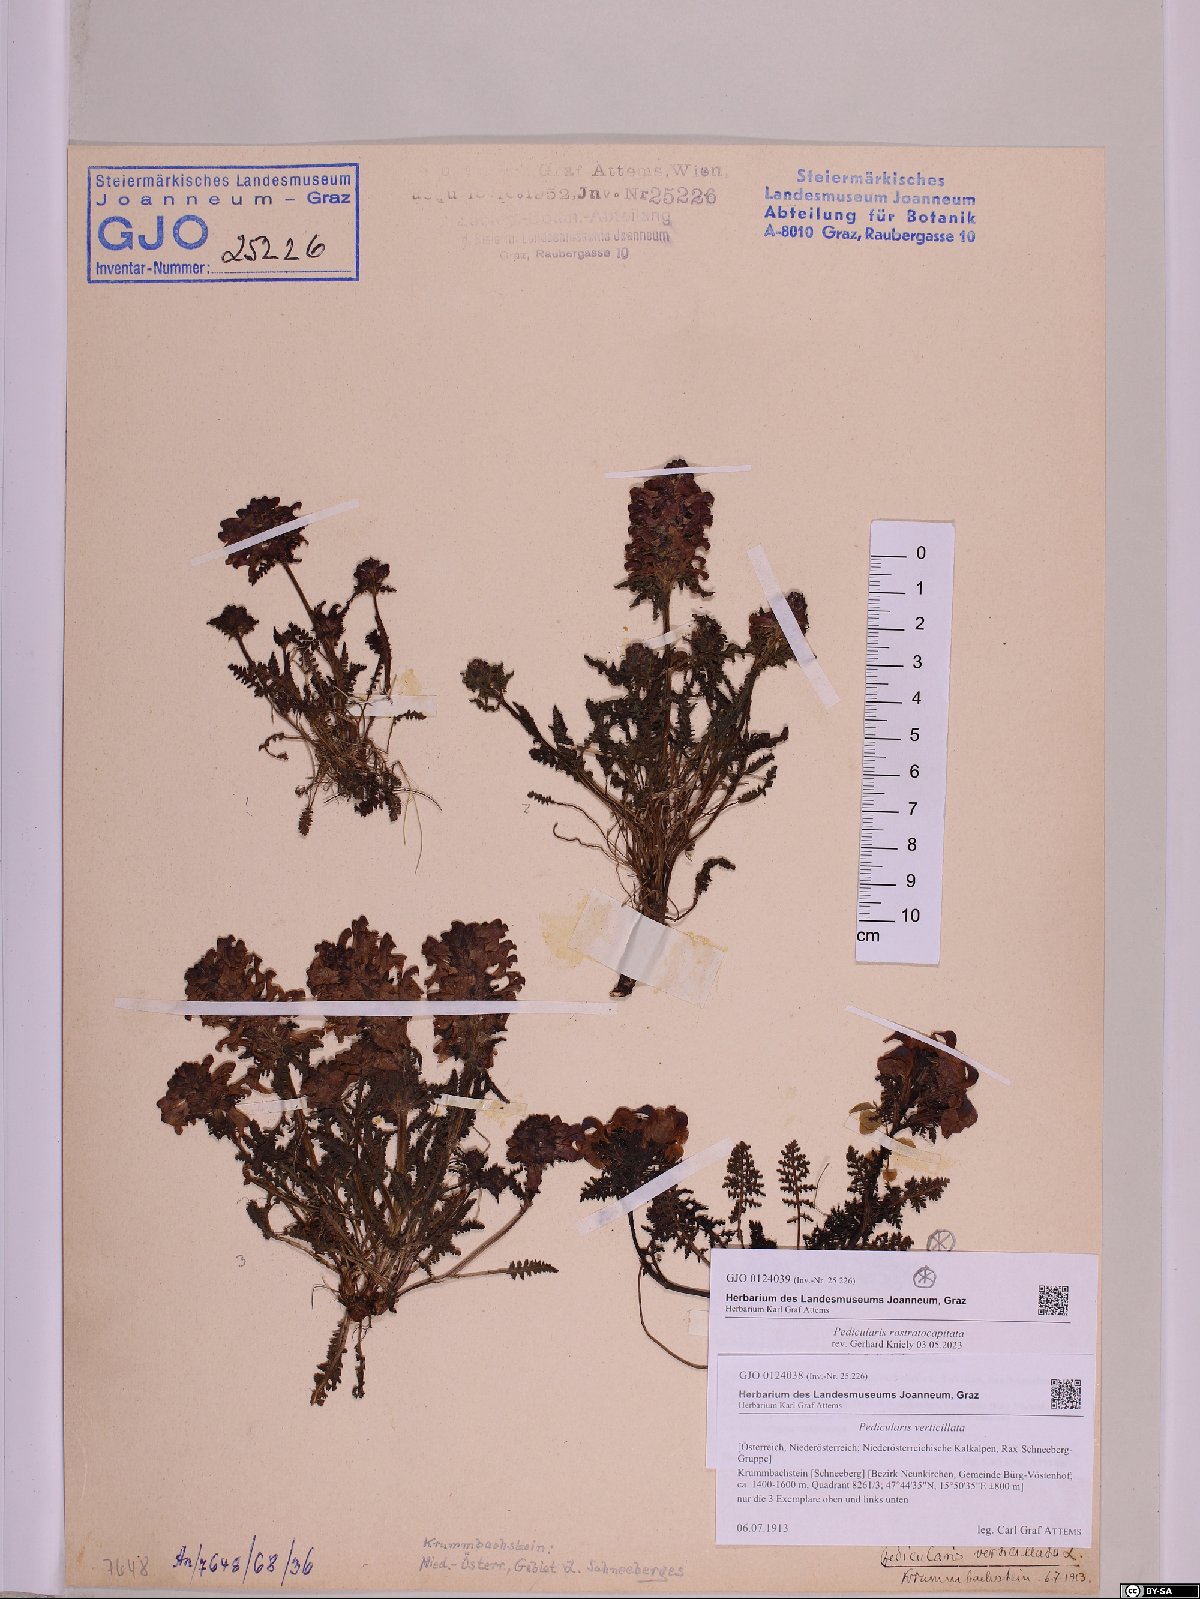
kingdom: Plantae
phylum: Tracheophyta
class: Magnoliopsida
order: Lamiales
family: Orobanchaceae
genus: Pedicularis
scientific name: Pedicularis verticillata
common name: Whorled lousewort
